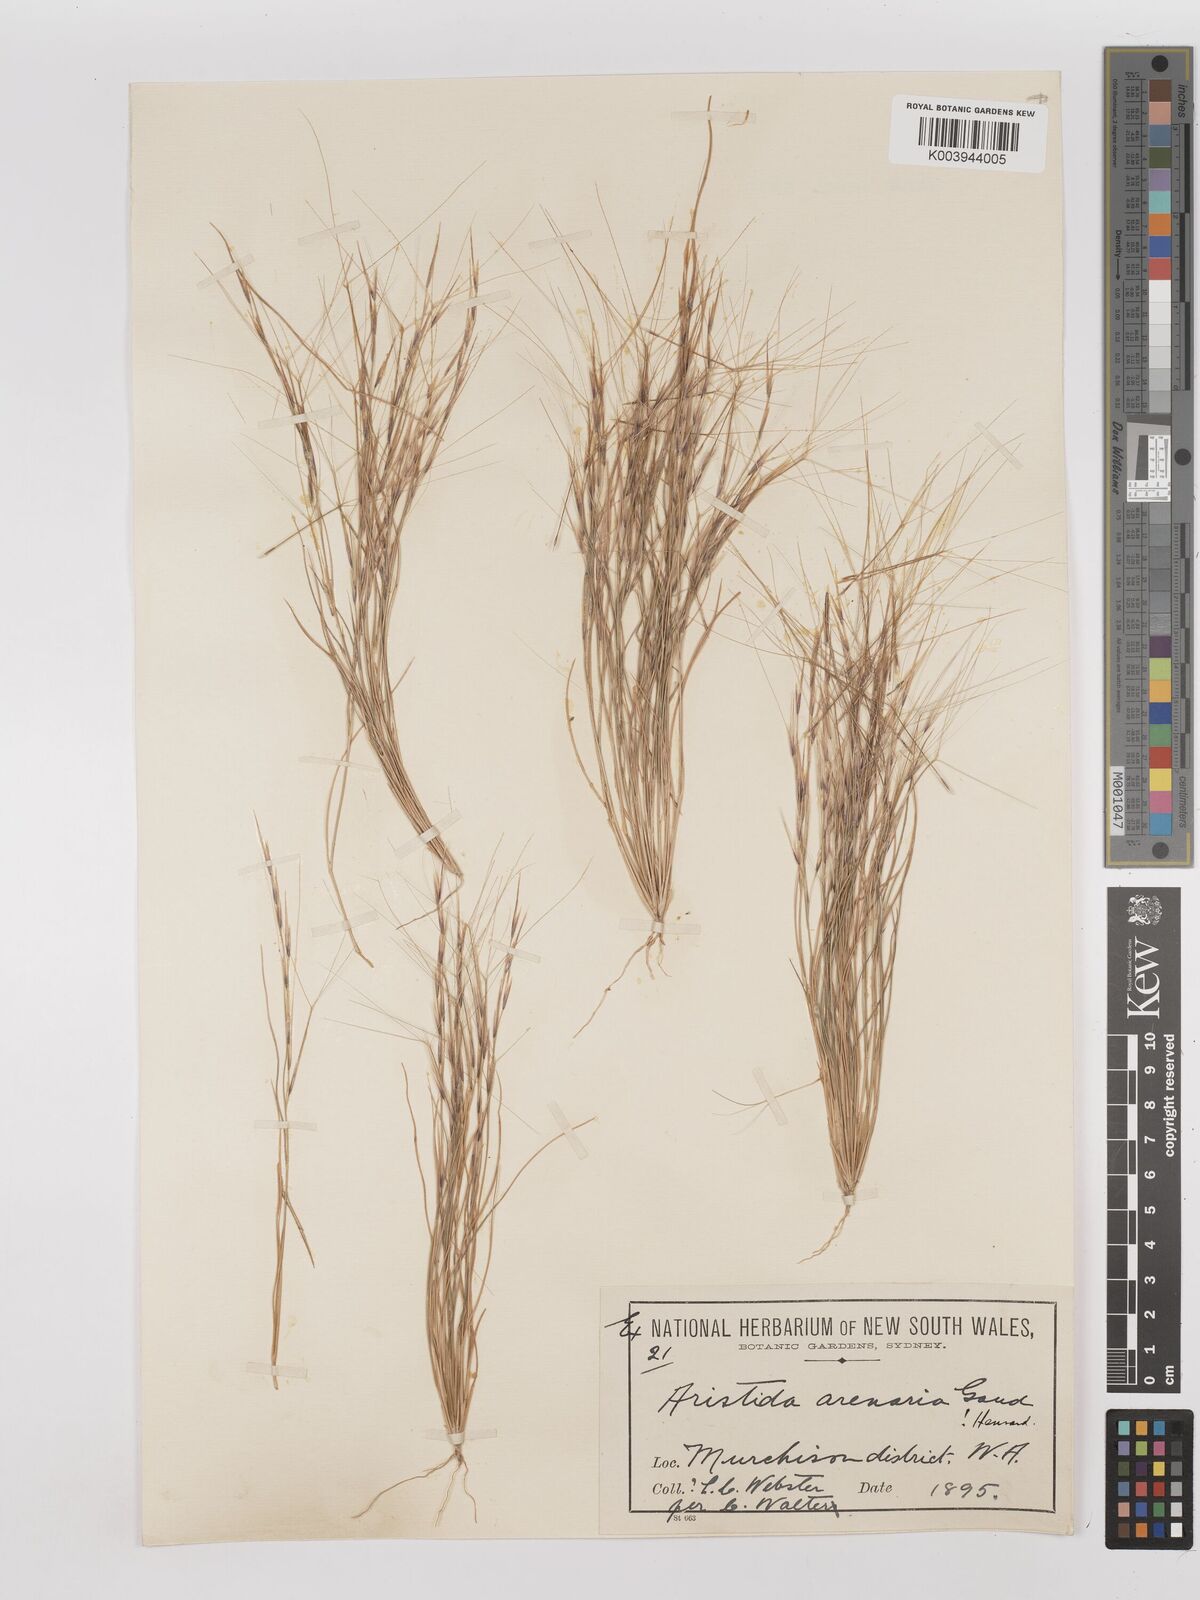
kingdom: Plantae
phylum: Tracheophyta
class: Liliopsida
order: Poales
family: Poaceae
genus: Aristida
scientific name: Aristida contorta
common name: Bunch kerosene grass
